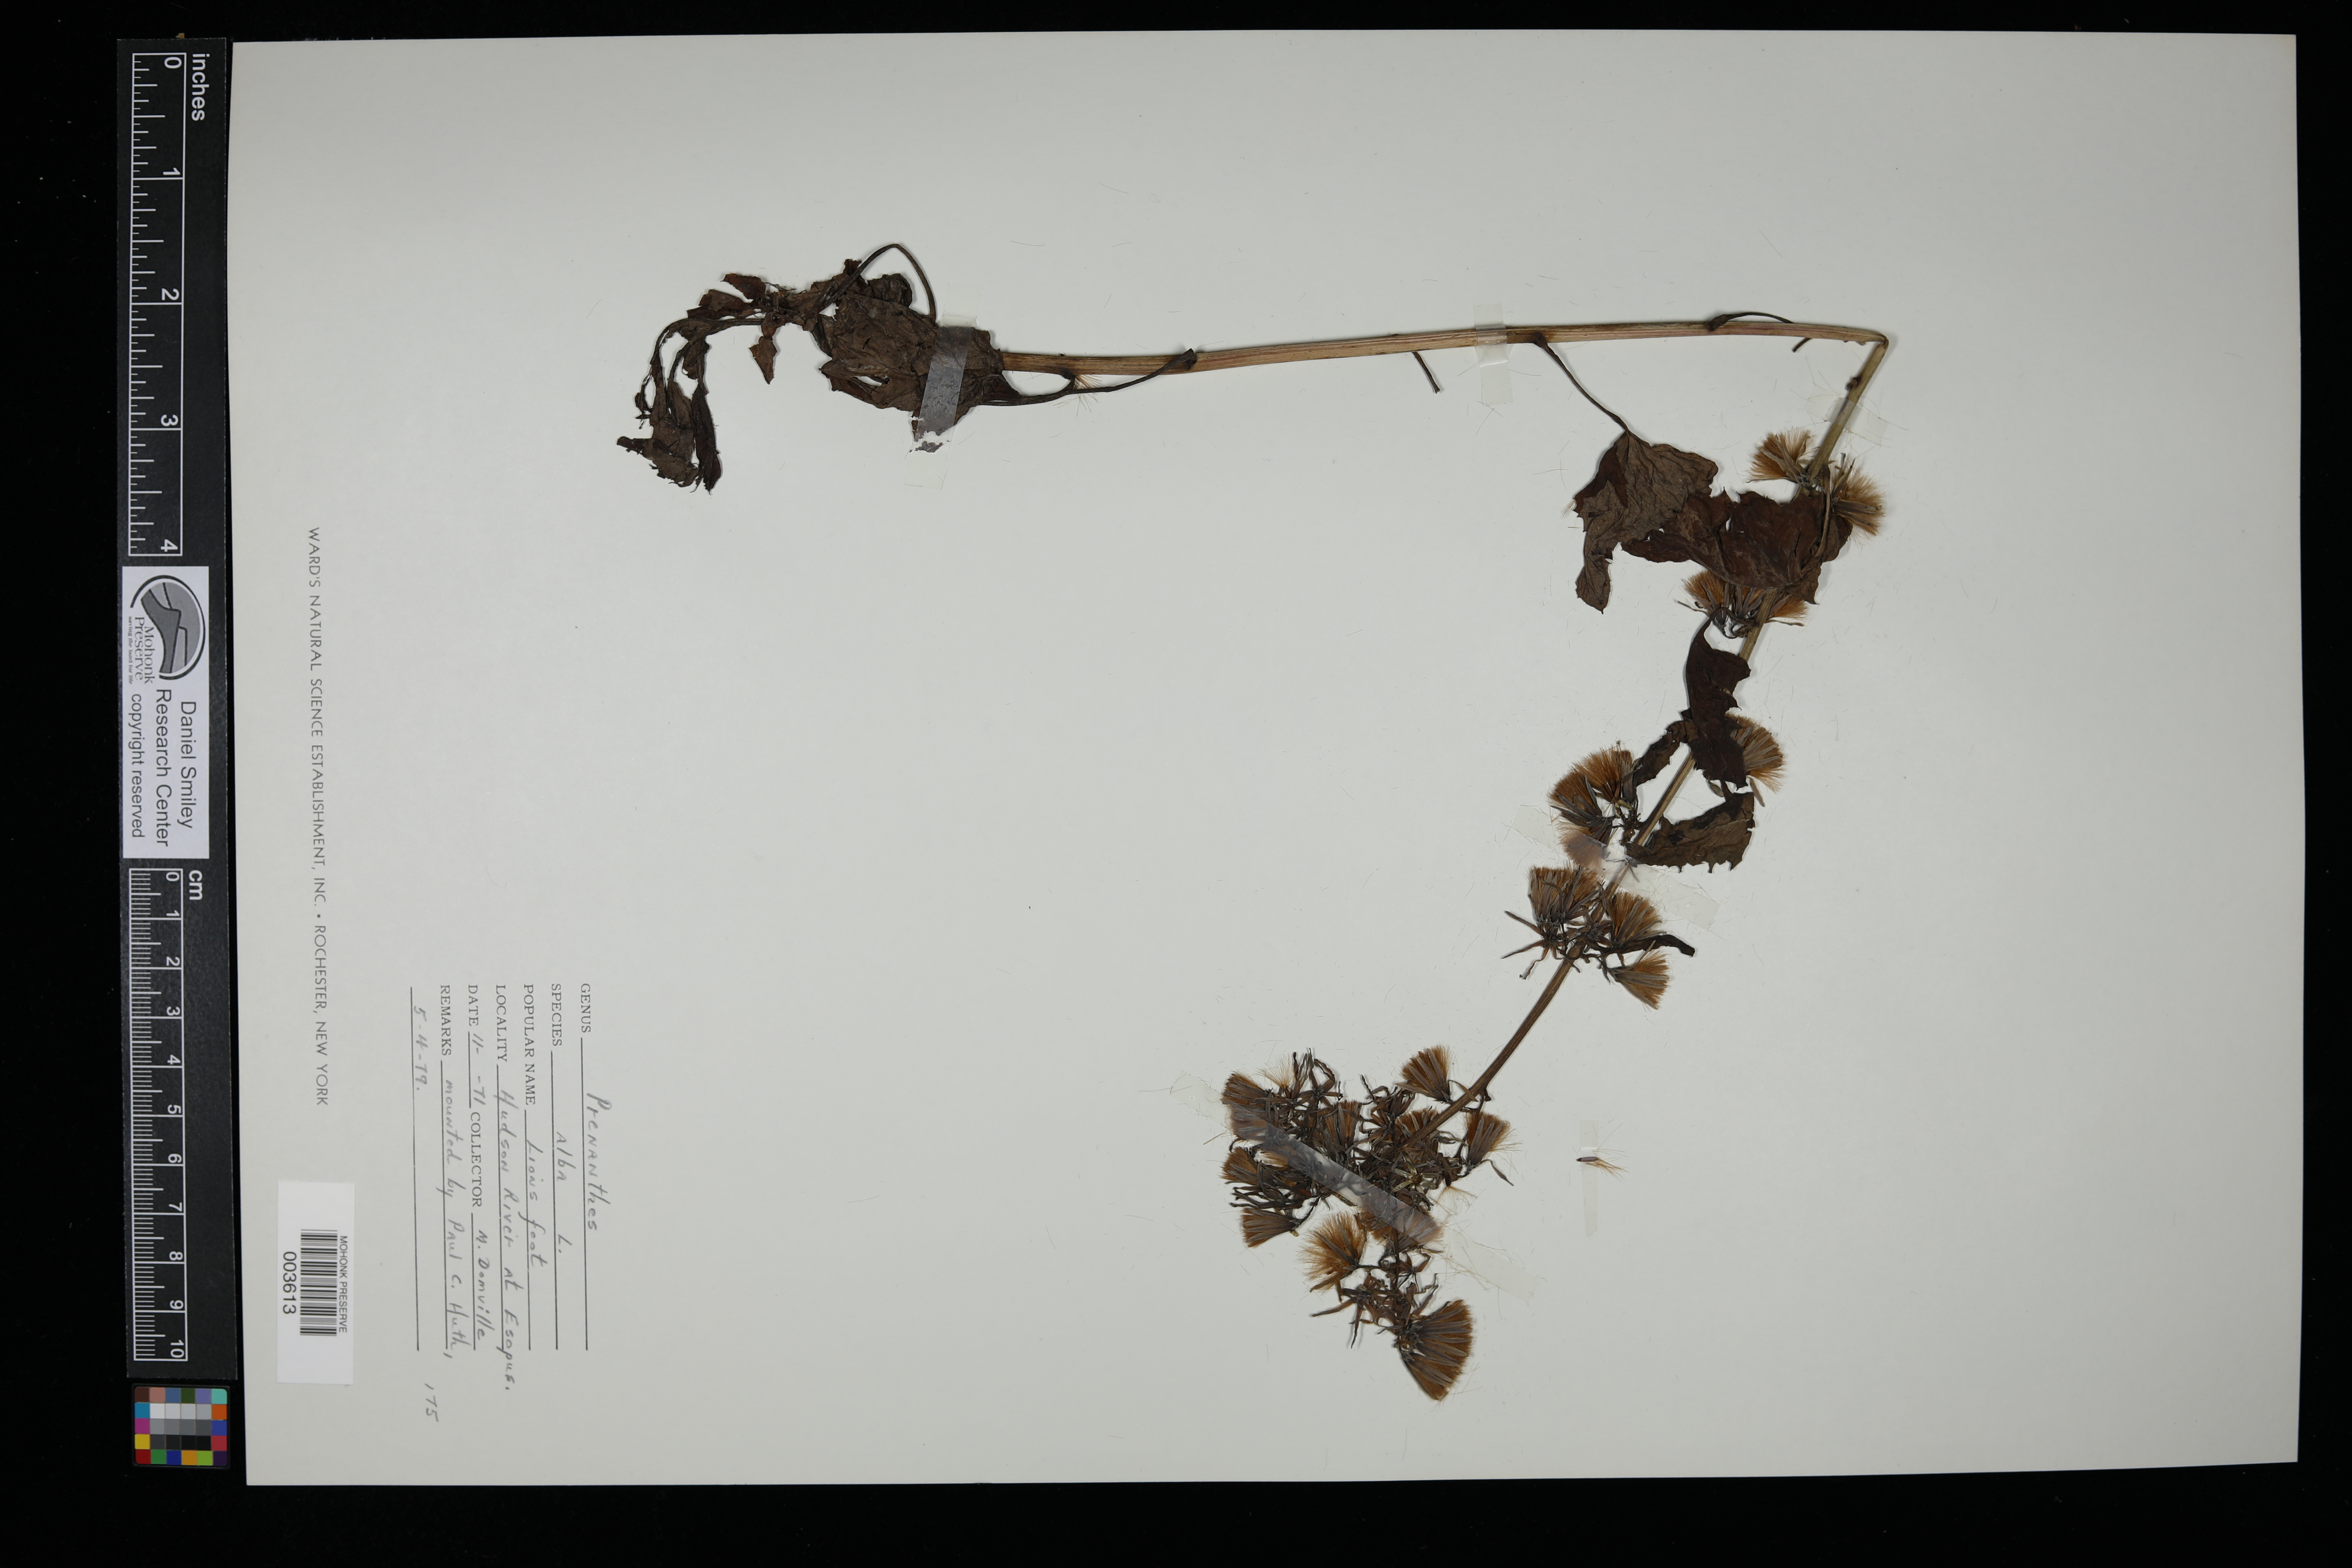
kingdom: Plantae
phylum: Tracheophyta
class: Magnoliopsida
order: Asterales
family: Asteraceae
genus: Nabalus
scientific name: Nabalus albus
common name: White rattlesnakeroot
